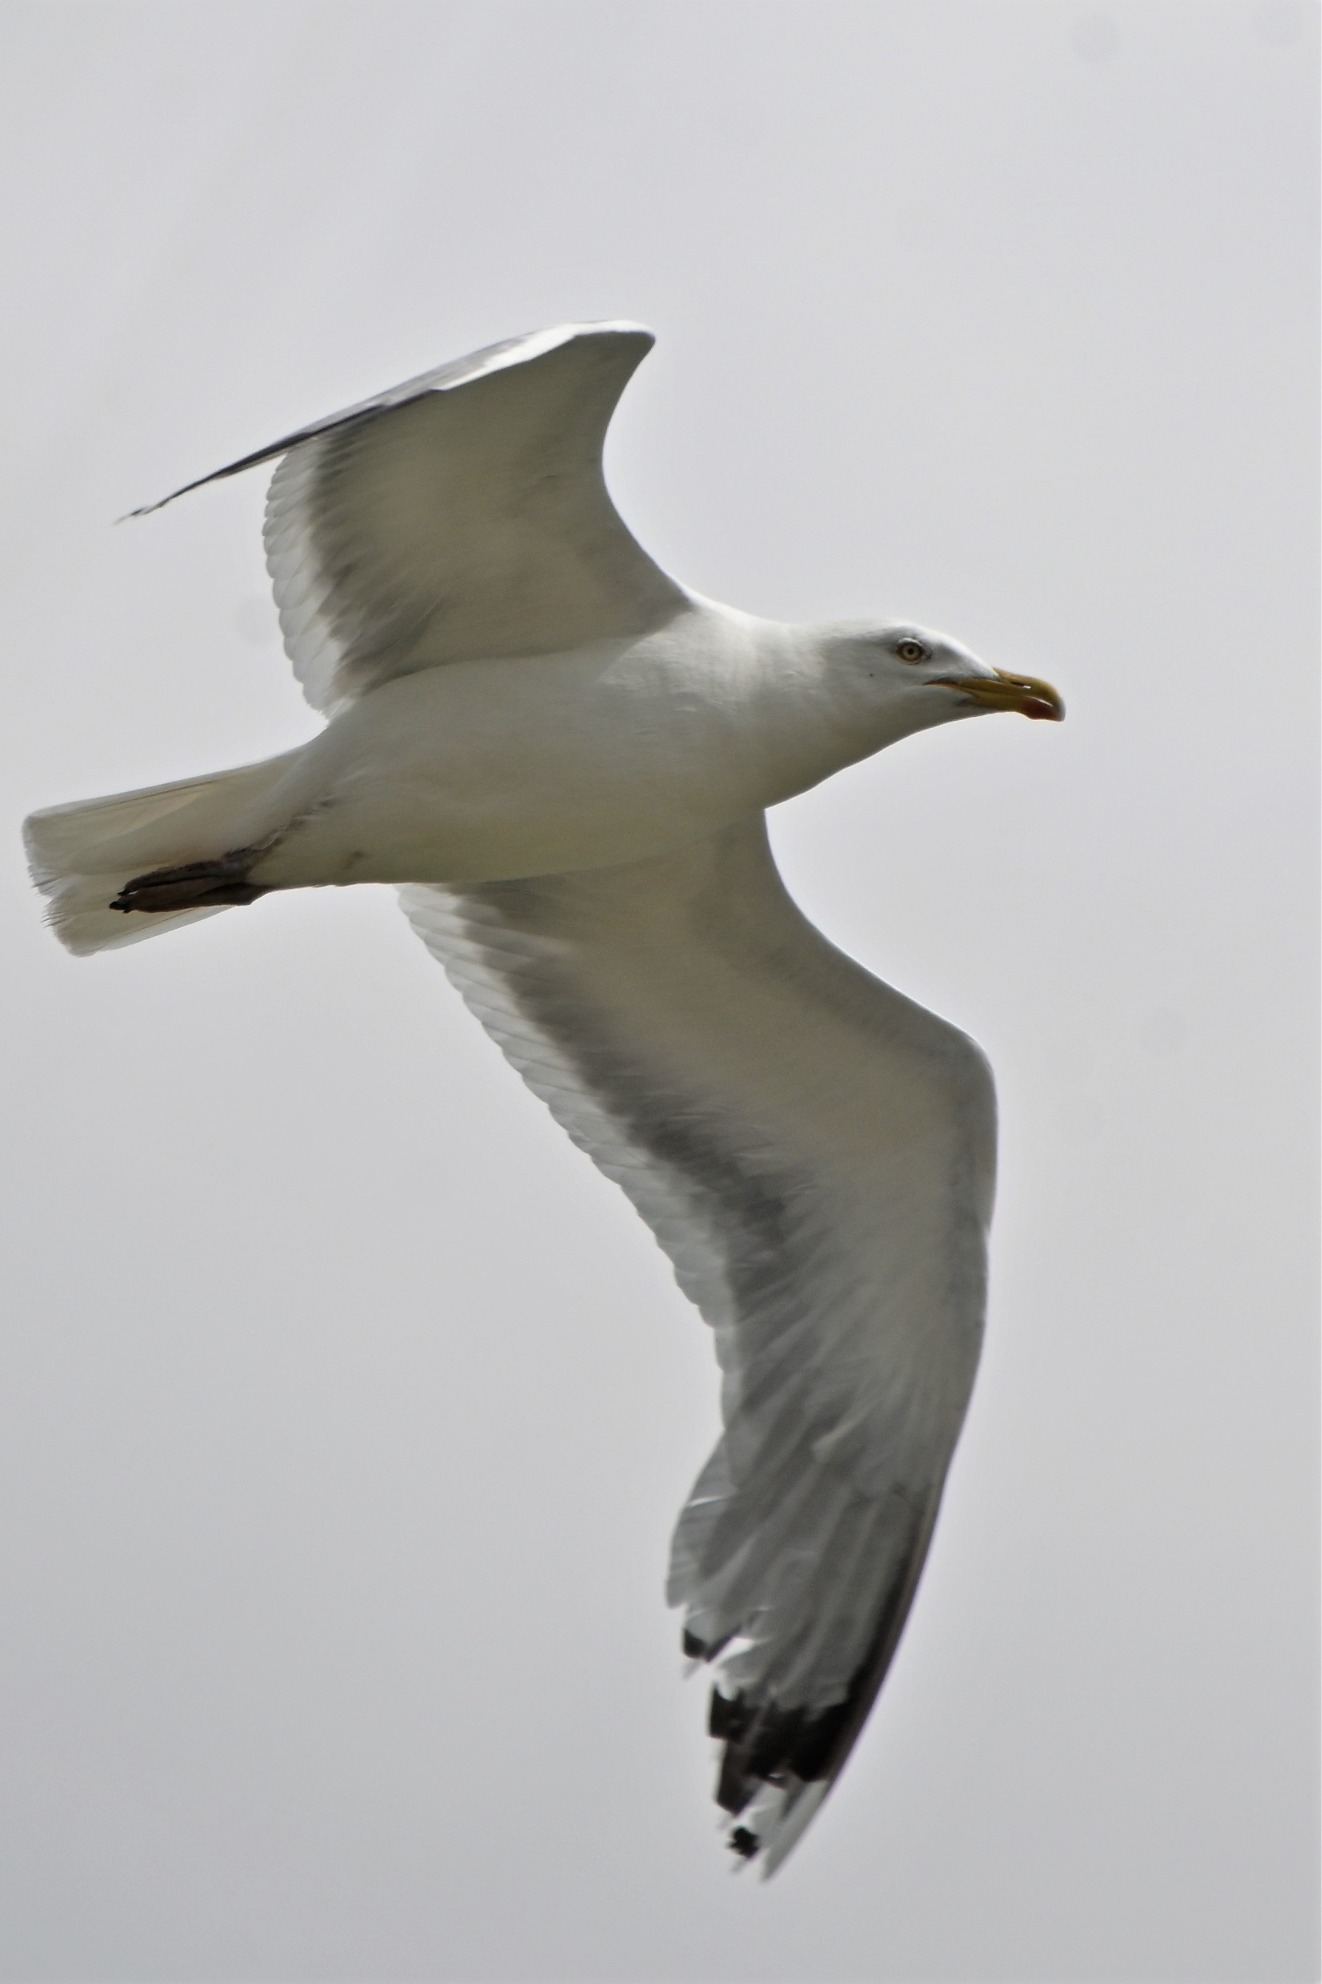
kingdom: Animalia
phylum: Chordata
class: Aves
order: Charadriiformes
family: Laridae
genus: Larus
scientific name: Larus argentatus
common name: Sølvmåge
